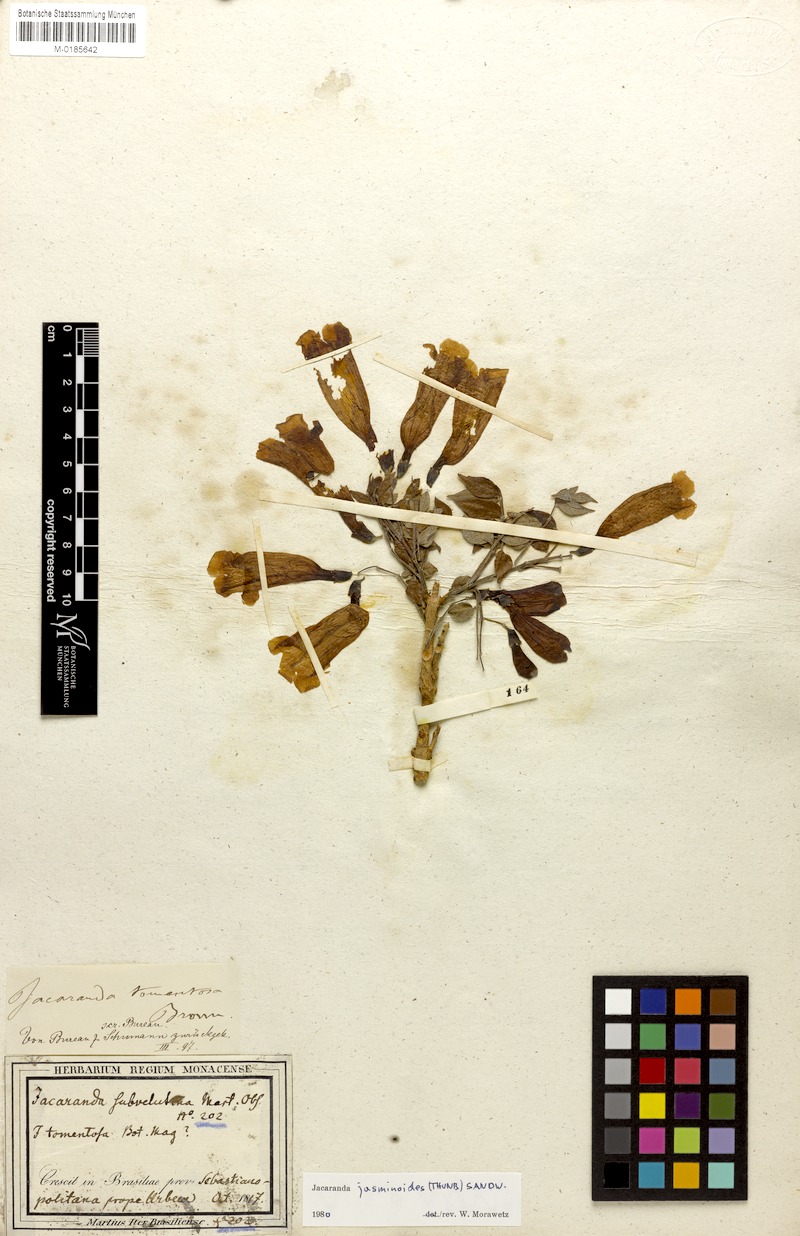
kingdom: Plantae
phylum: Tracheophyta
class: Magnoliopsida
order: Lamiales
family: Bignoniaceae
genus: Jacaranda
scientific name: Jacaranda jasminoides
